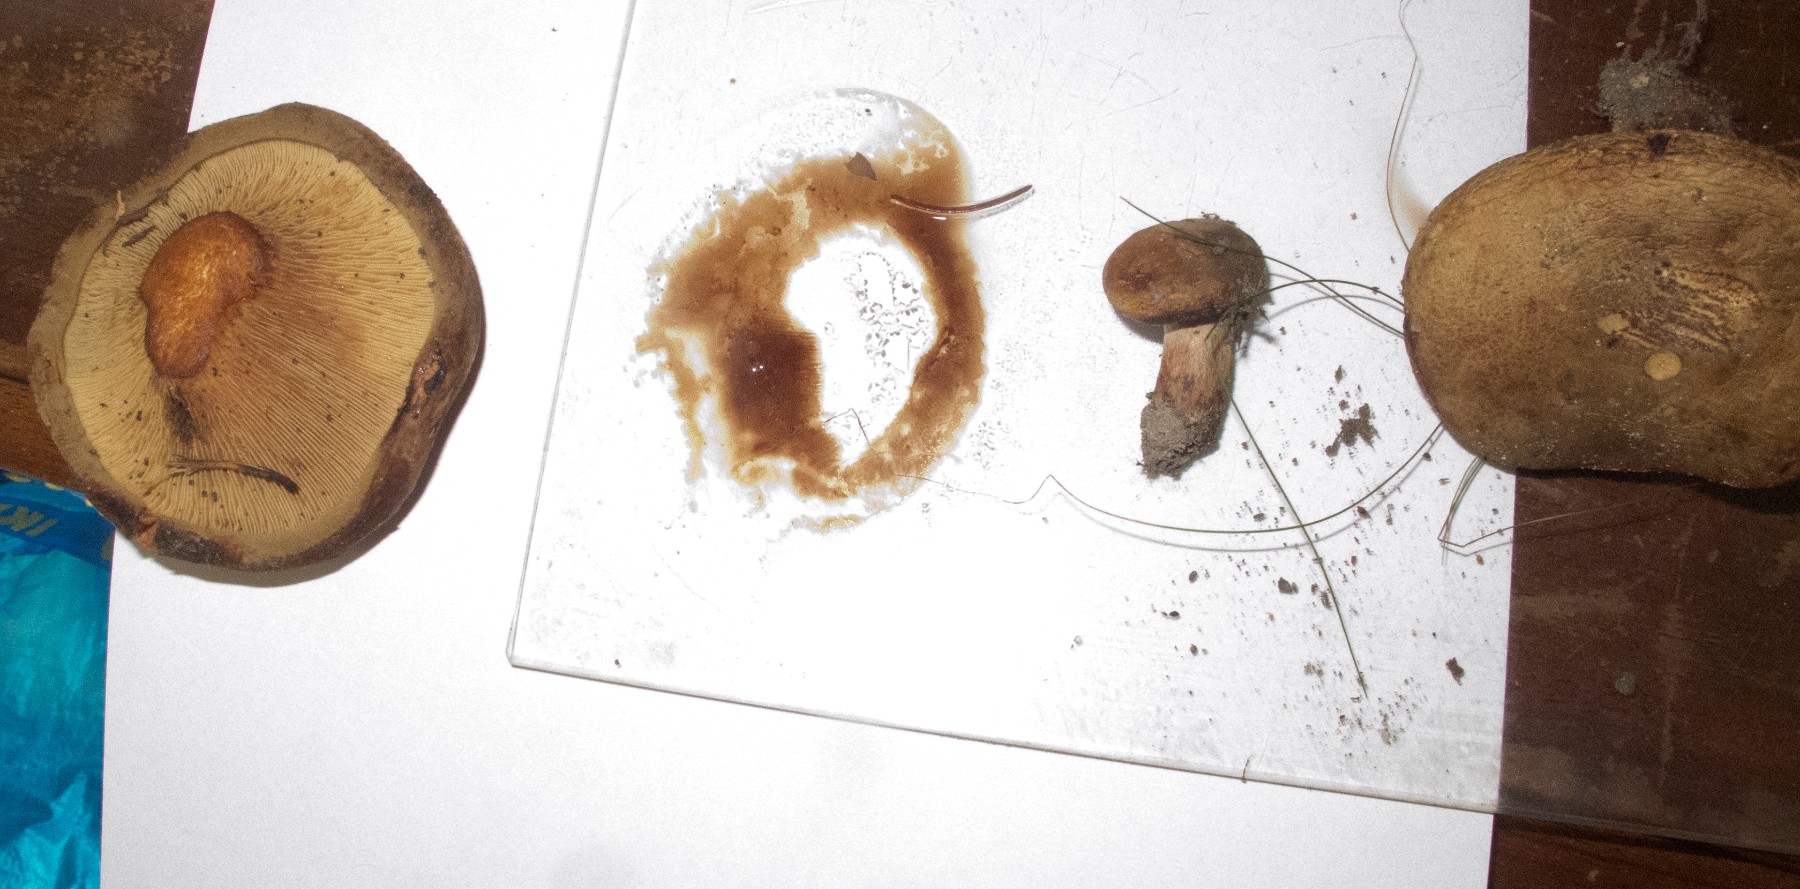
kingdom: Fungi
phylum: Basidiomycota
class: Agaricomycetes
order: Boletales
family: Paxillaceae
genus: Paxillus
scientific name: Paxillus involutus
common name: almindelig netbladhat
